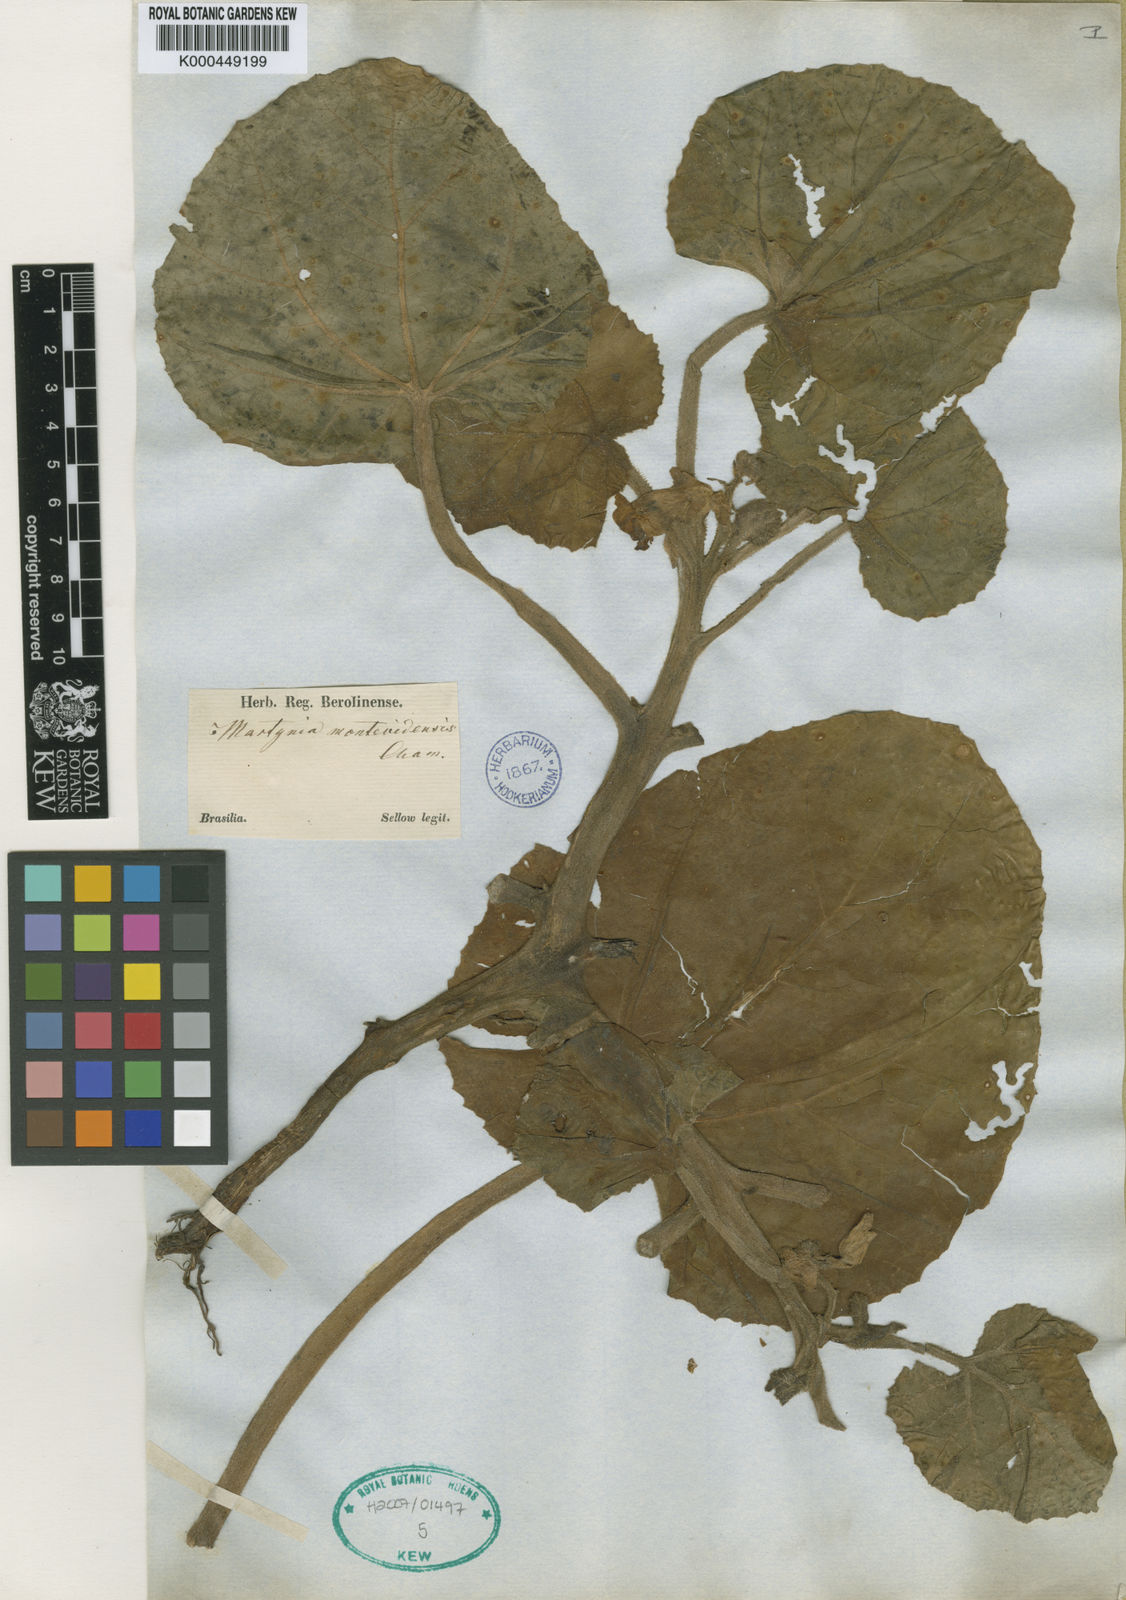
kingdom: Plantae
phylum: Tracheophyta
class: Magnoliopsida
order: Lamiales
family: Martyniaceae
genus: Proboscidea
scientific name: Proboscidea
